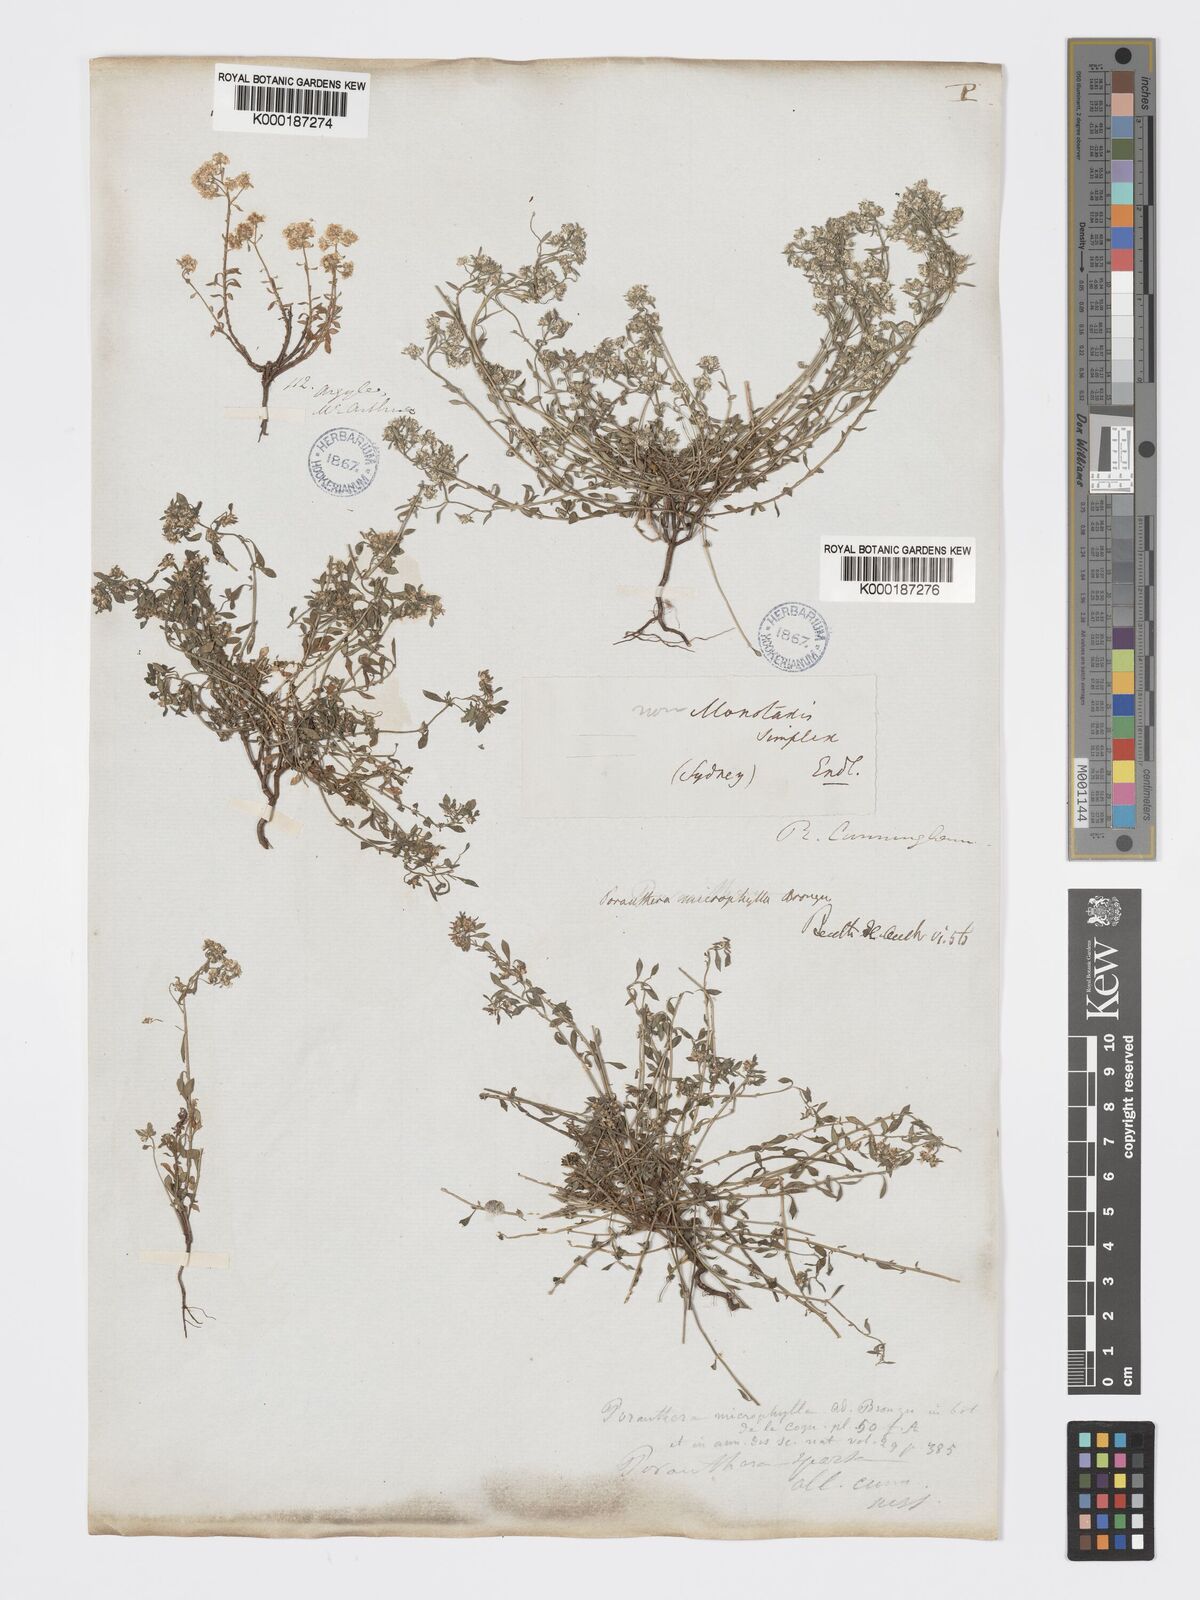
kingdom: Plantae
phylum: Tracheophyta
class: Magnoliopsida
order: Malpighiales
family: Phyllanthaceae
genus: Poranthera
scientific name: Poranthera microphylla
